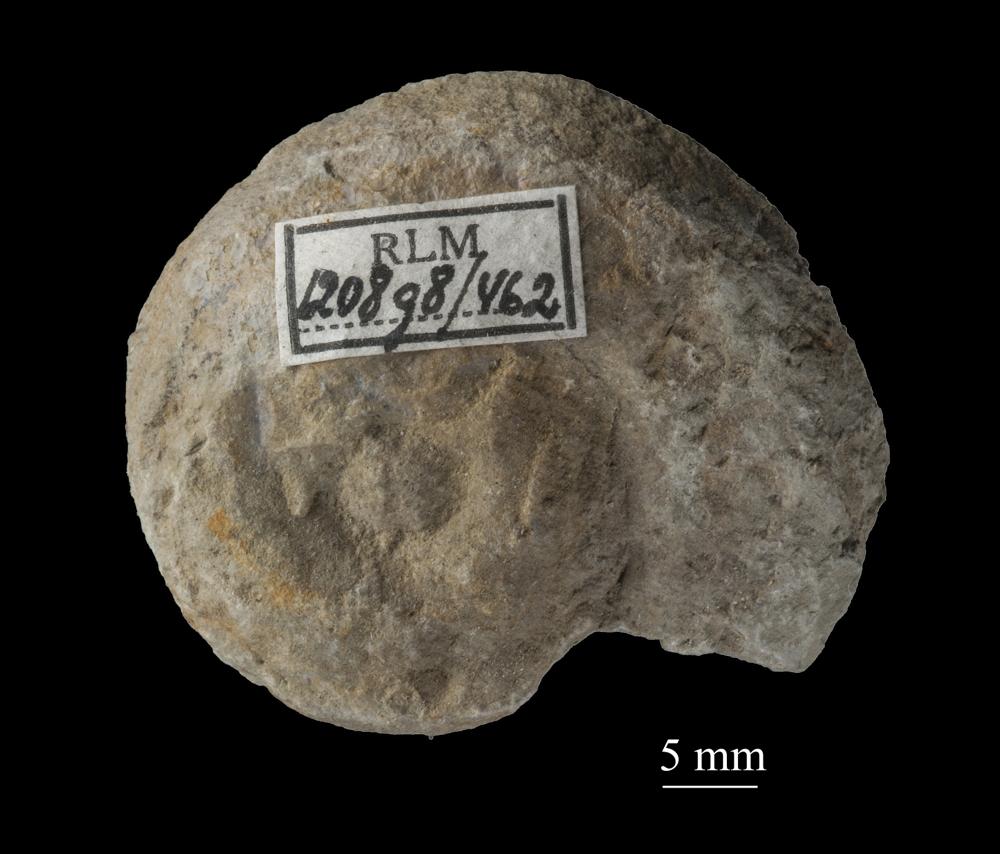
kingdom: Animalia
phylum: Mollusca
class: Gastropoda
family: Euomphalidae
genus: Euomphalus
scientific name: Euomphalus
